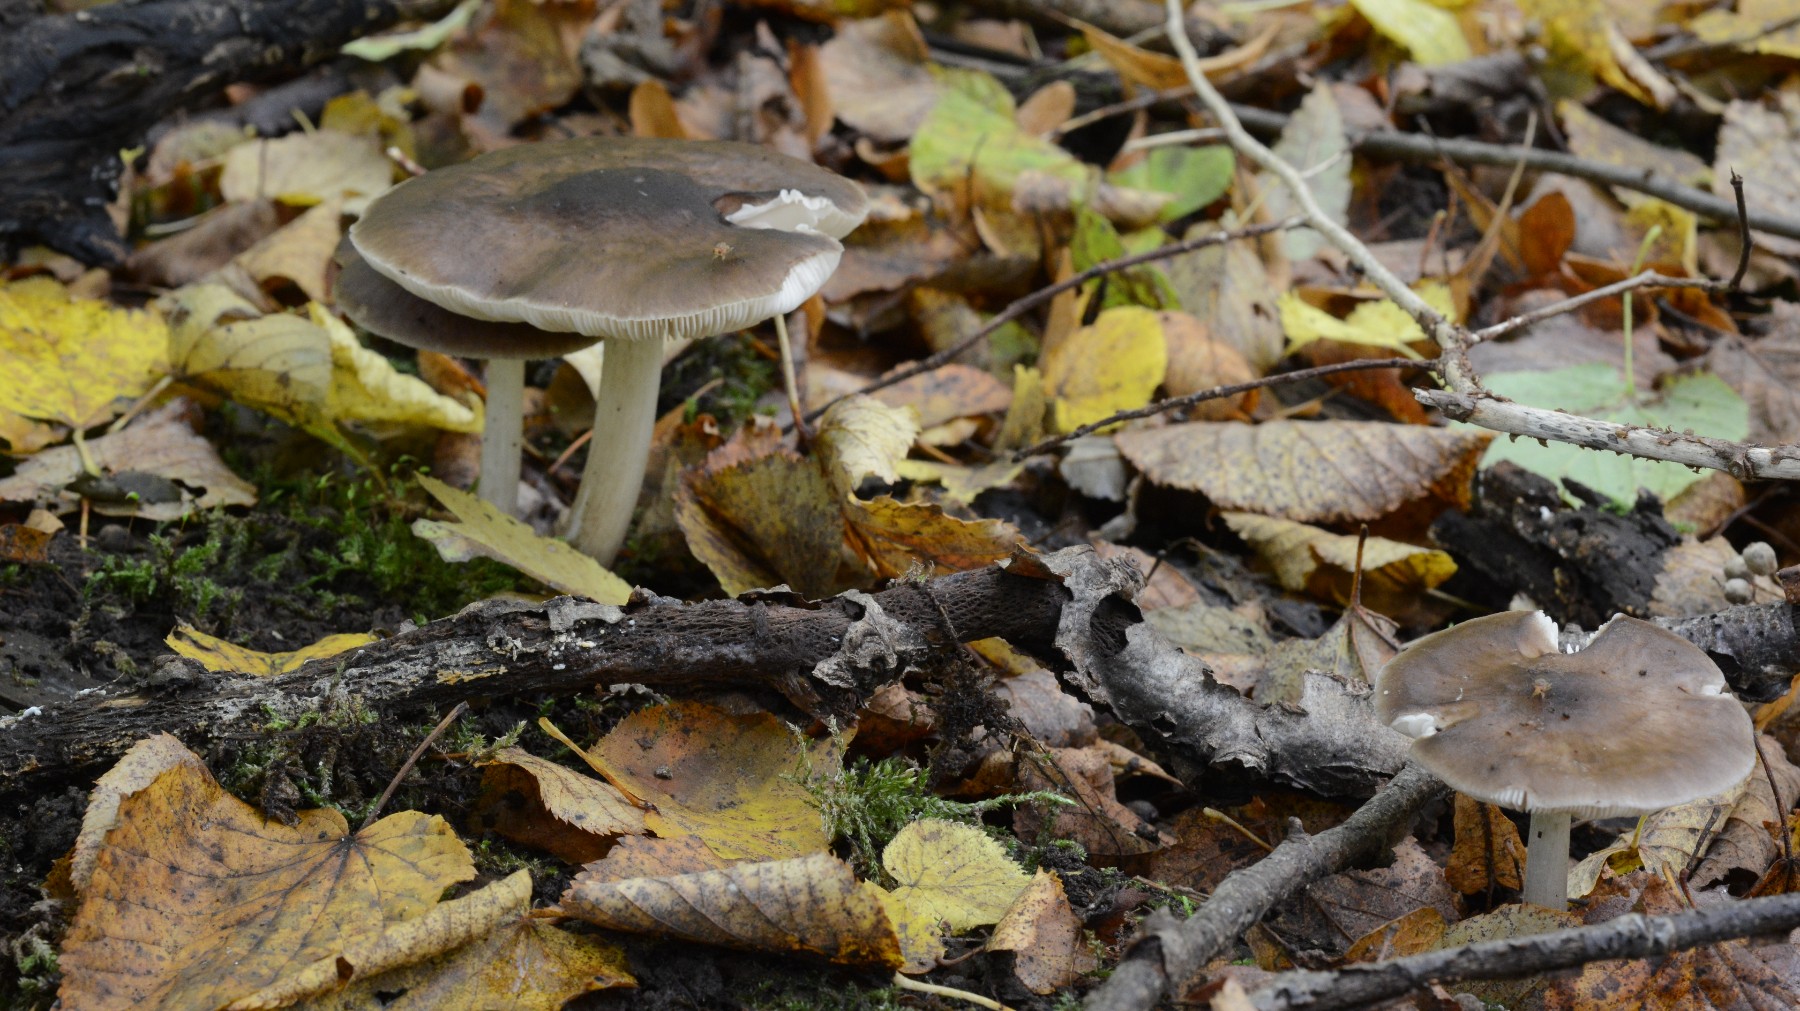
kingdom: Fungi
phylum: Basidiomycota
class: Agaricomycetes
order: Agaricales
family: Pluteaceae
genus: Pluteus
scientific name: Pluteus cervinus
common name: sodfarvet skærmhat
